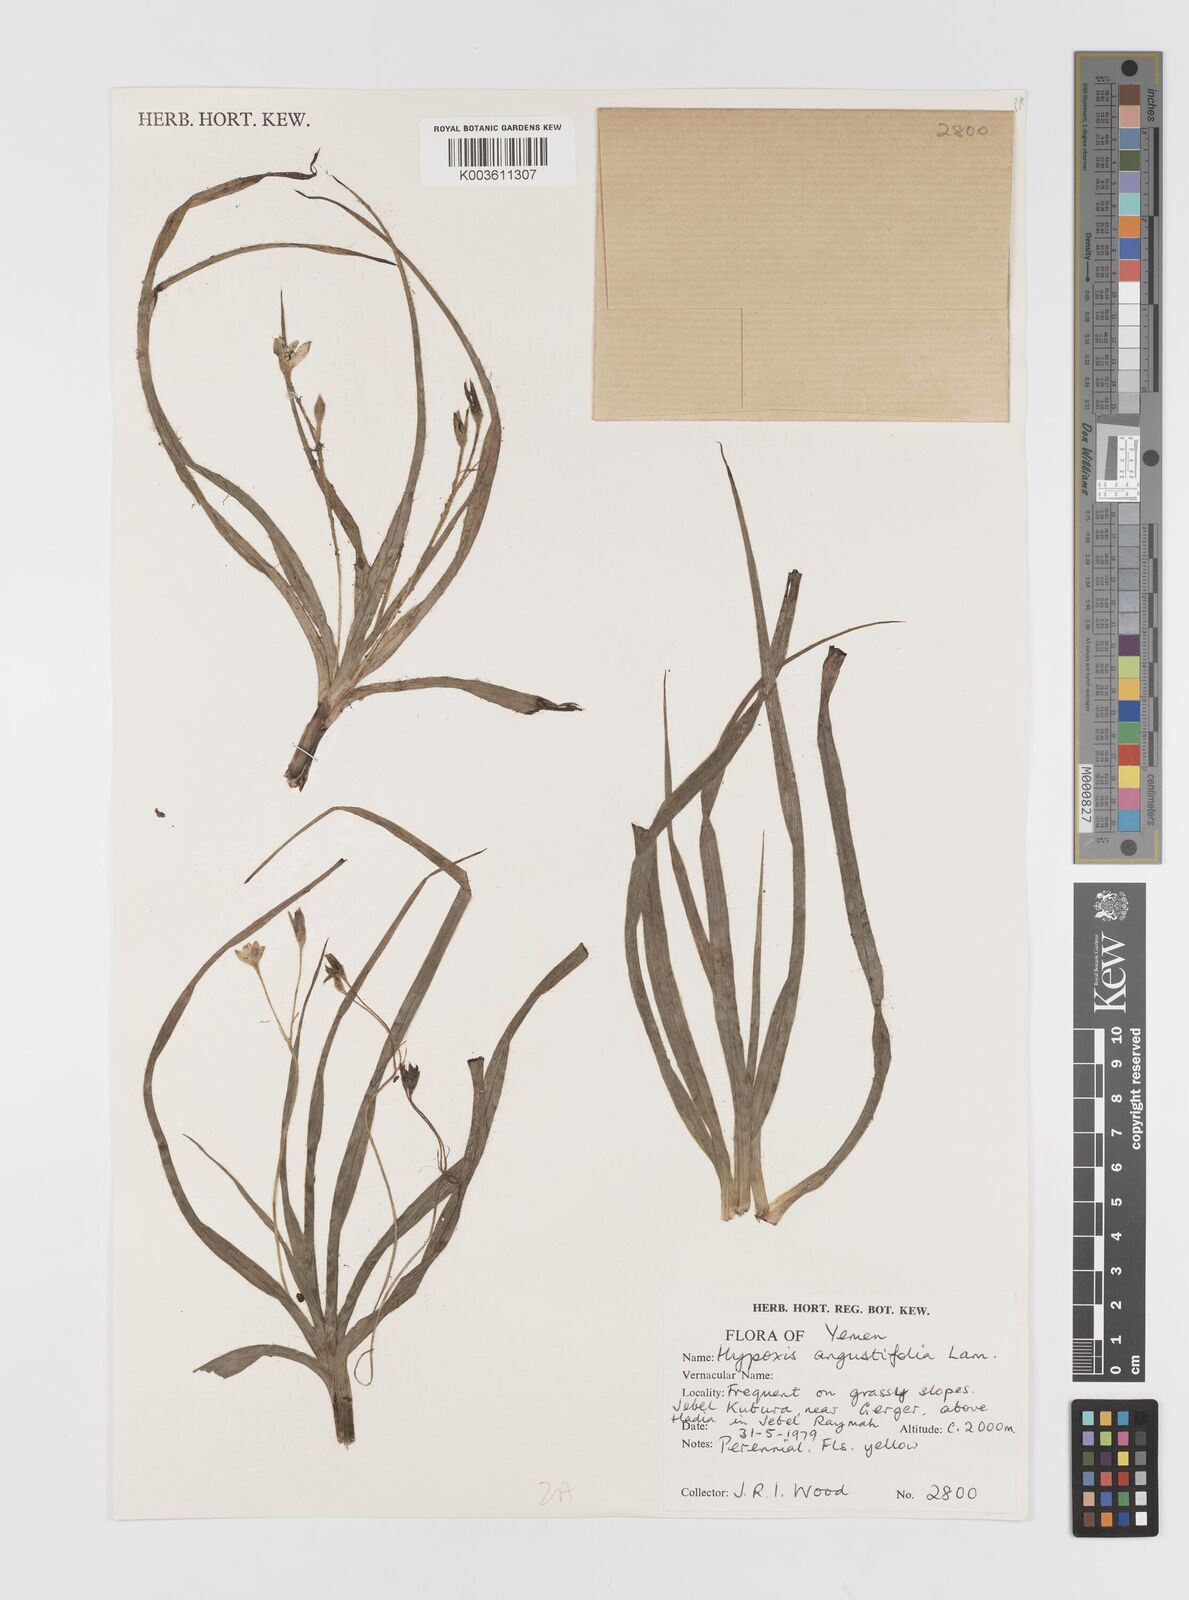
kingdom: Plantae
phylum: Tracheophyta
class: Liliopsida
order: Asparagales
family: Hypoxidaceae
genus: Hypoxis
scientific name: Hypoxis angustifolia
